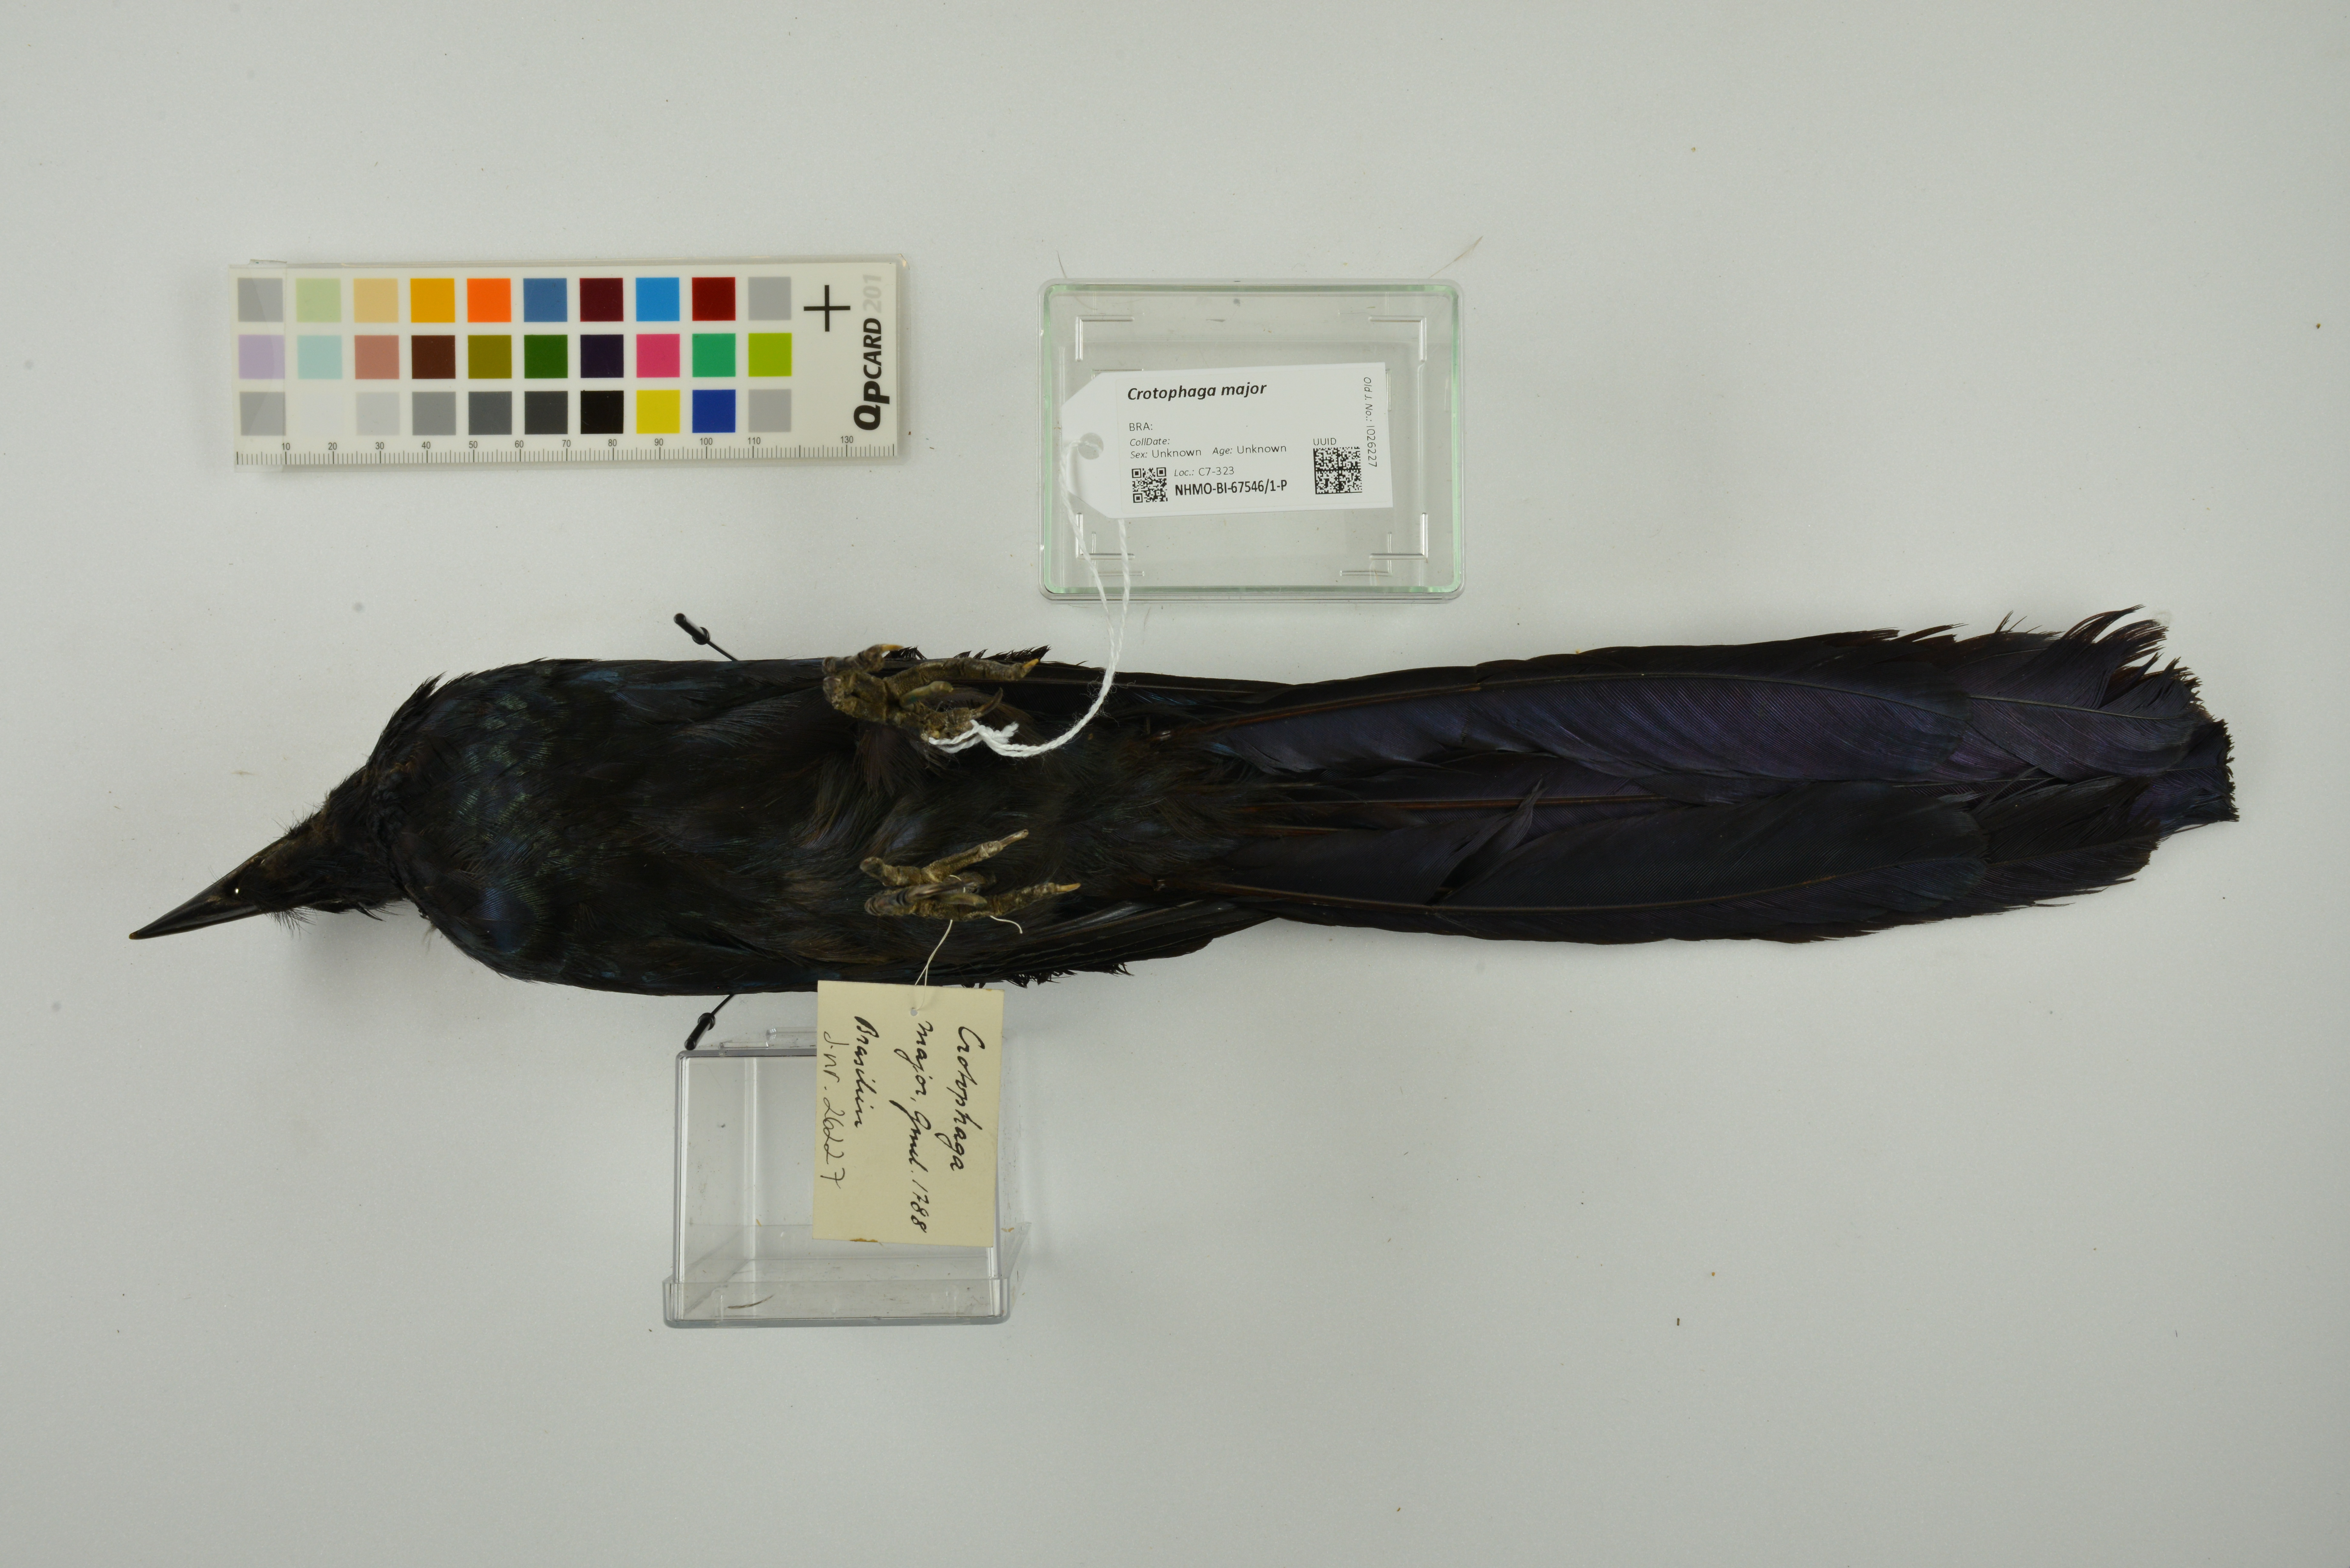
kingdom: Animalia
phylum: Chordata
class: Aves
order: Cuculiformes
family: Cuculidae
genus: Crotophaga
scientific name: Crotophaga major
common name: Greater ani
